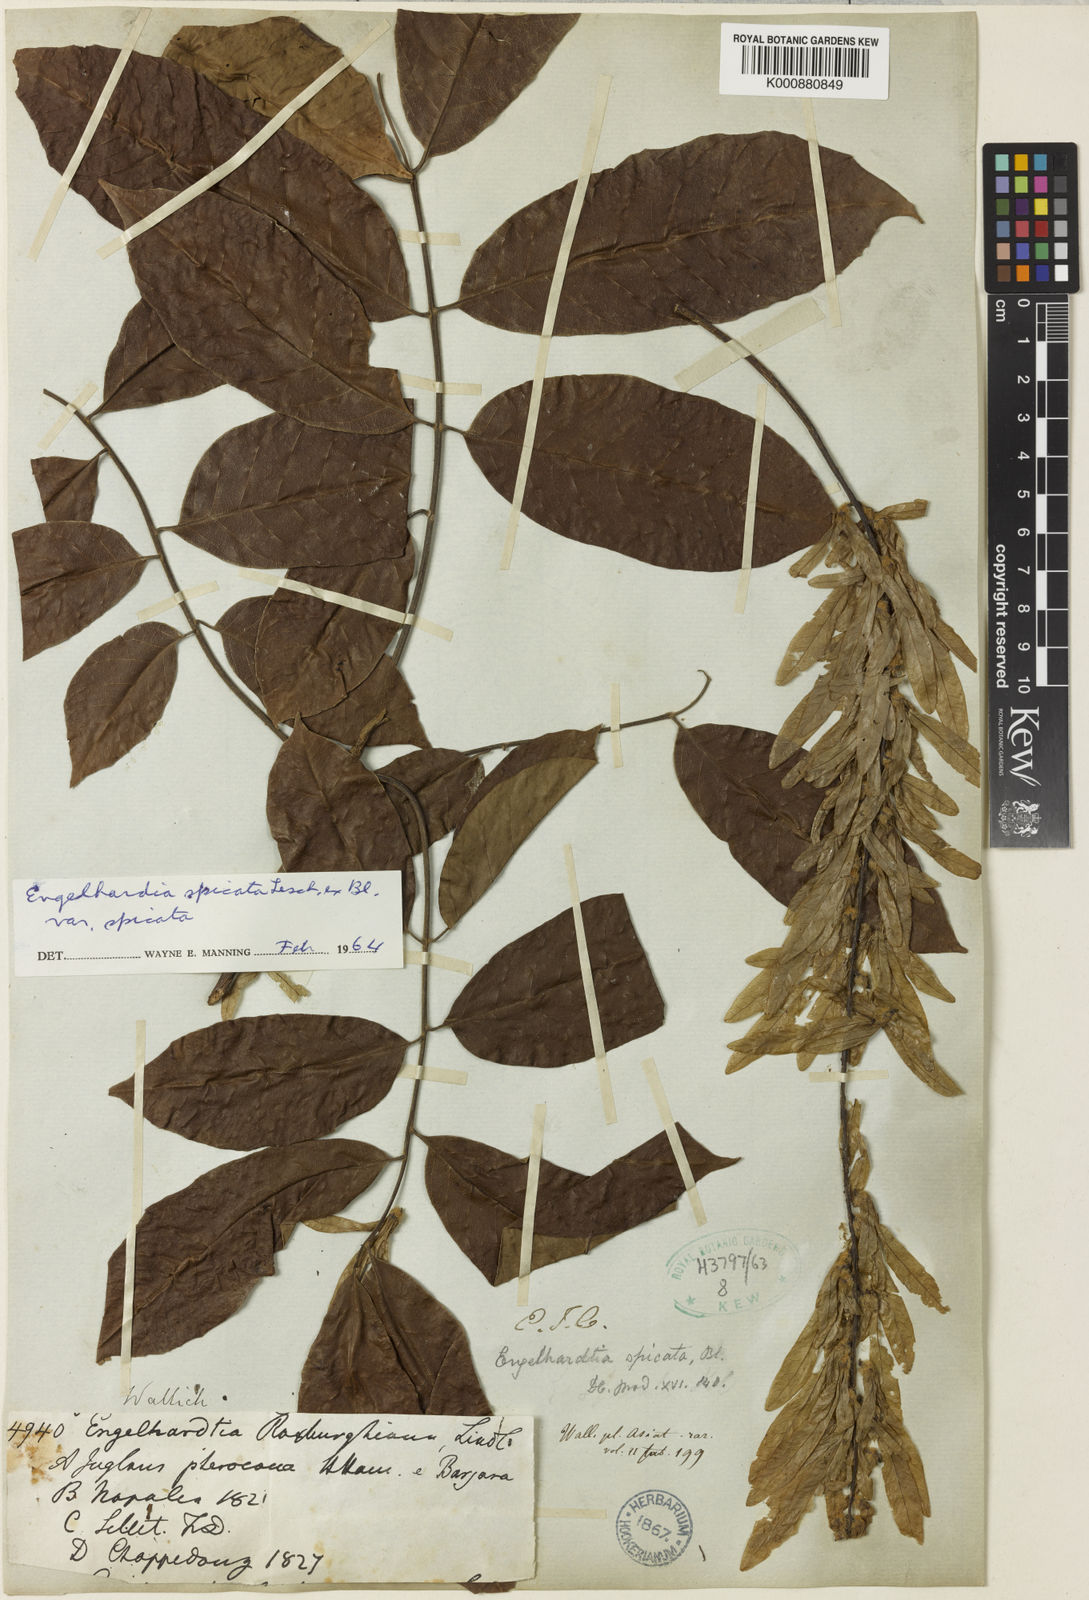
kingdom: Plantae
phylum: Tracheophyta
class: Magnoliopsida
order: Fagales
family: Juglandaceae
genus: Engelhardia
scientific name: Engelhardia spicata
